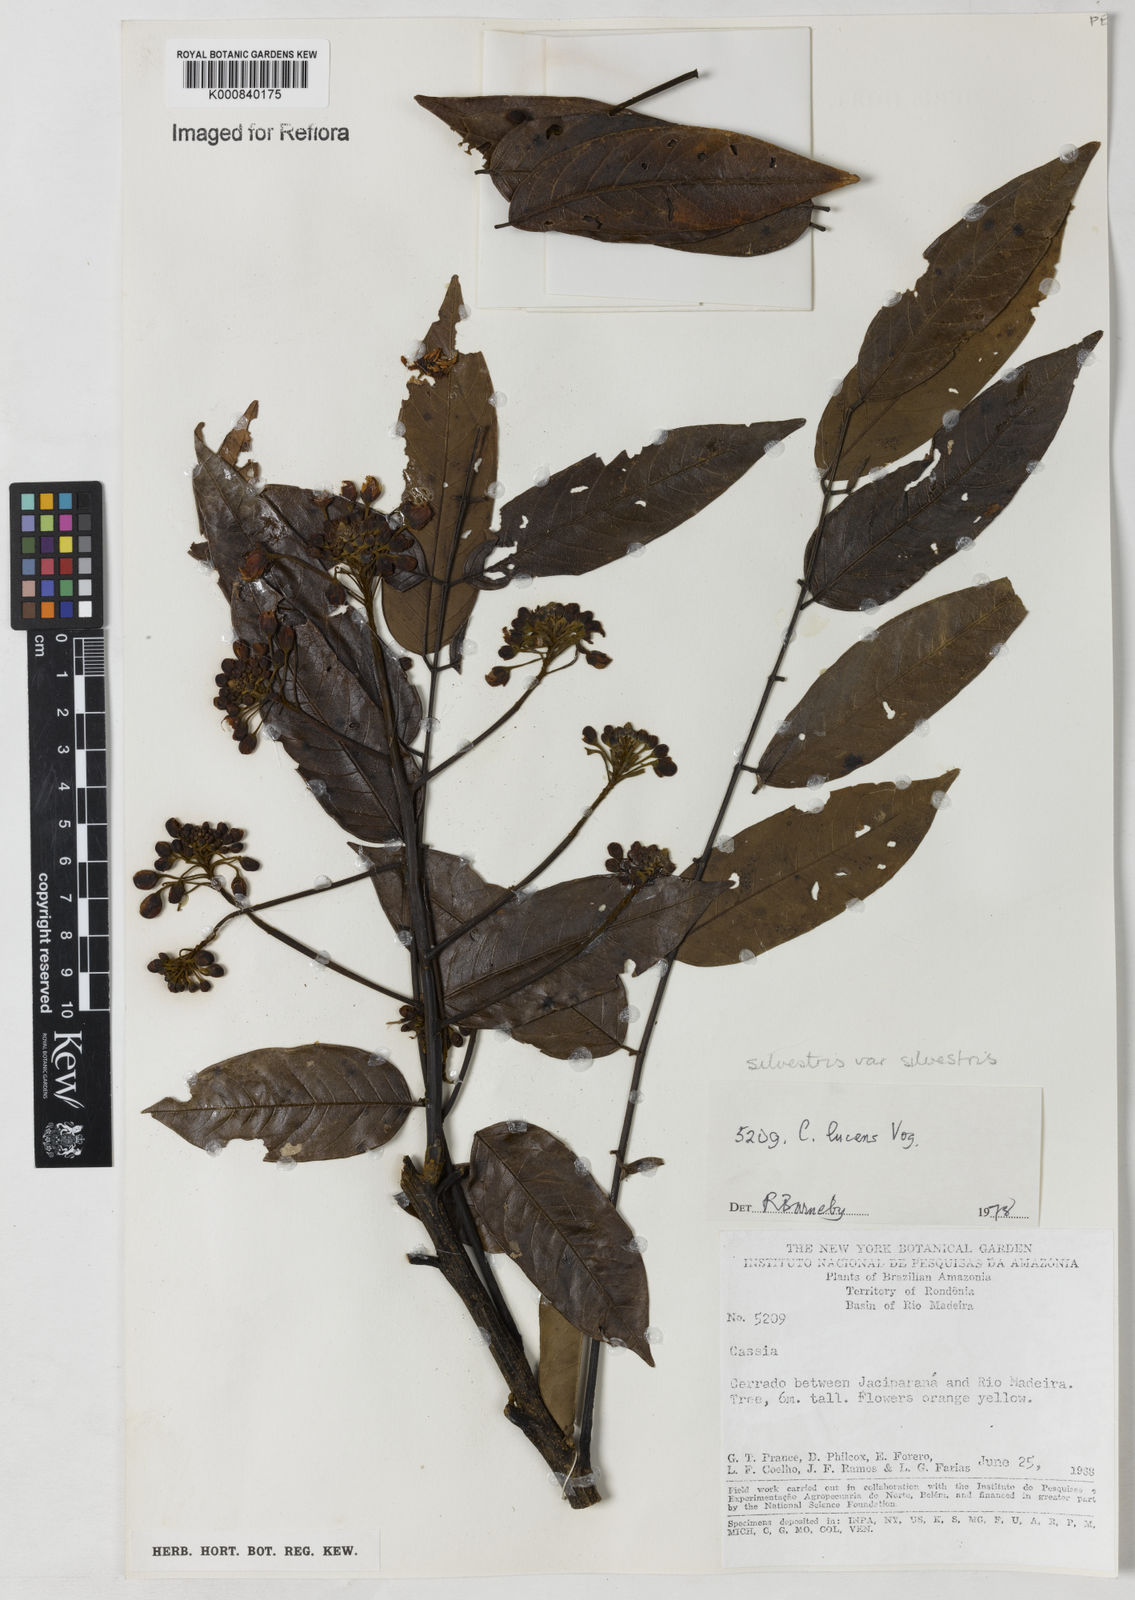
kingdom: Plantae
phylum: Tracheophyta
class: Magnoliopsida
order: Fabales
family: Fabaceae
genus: Senna
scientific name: Senna silvestris
